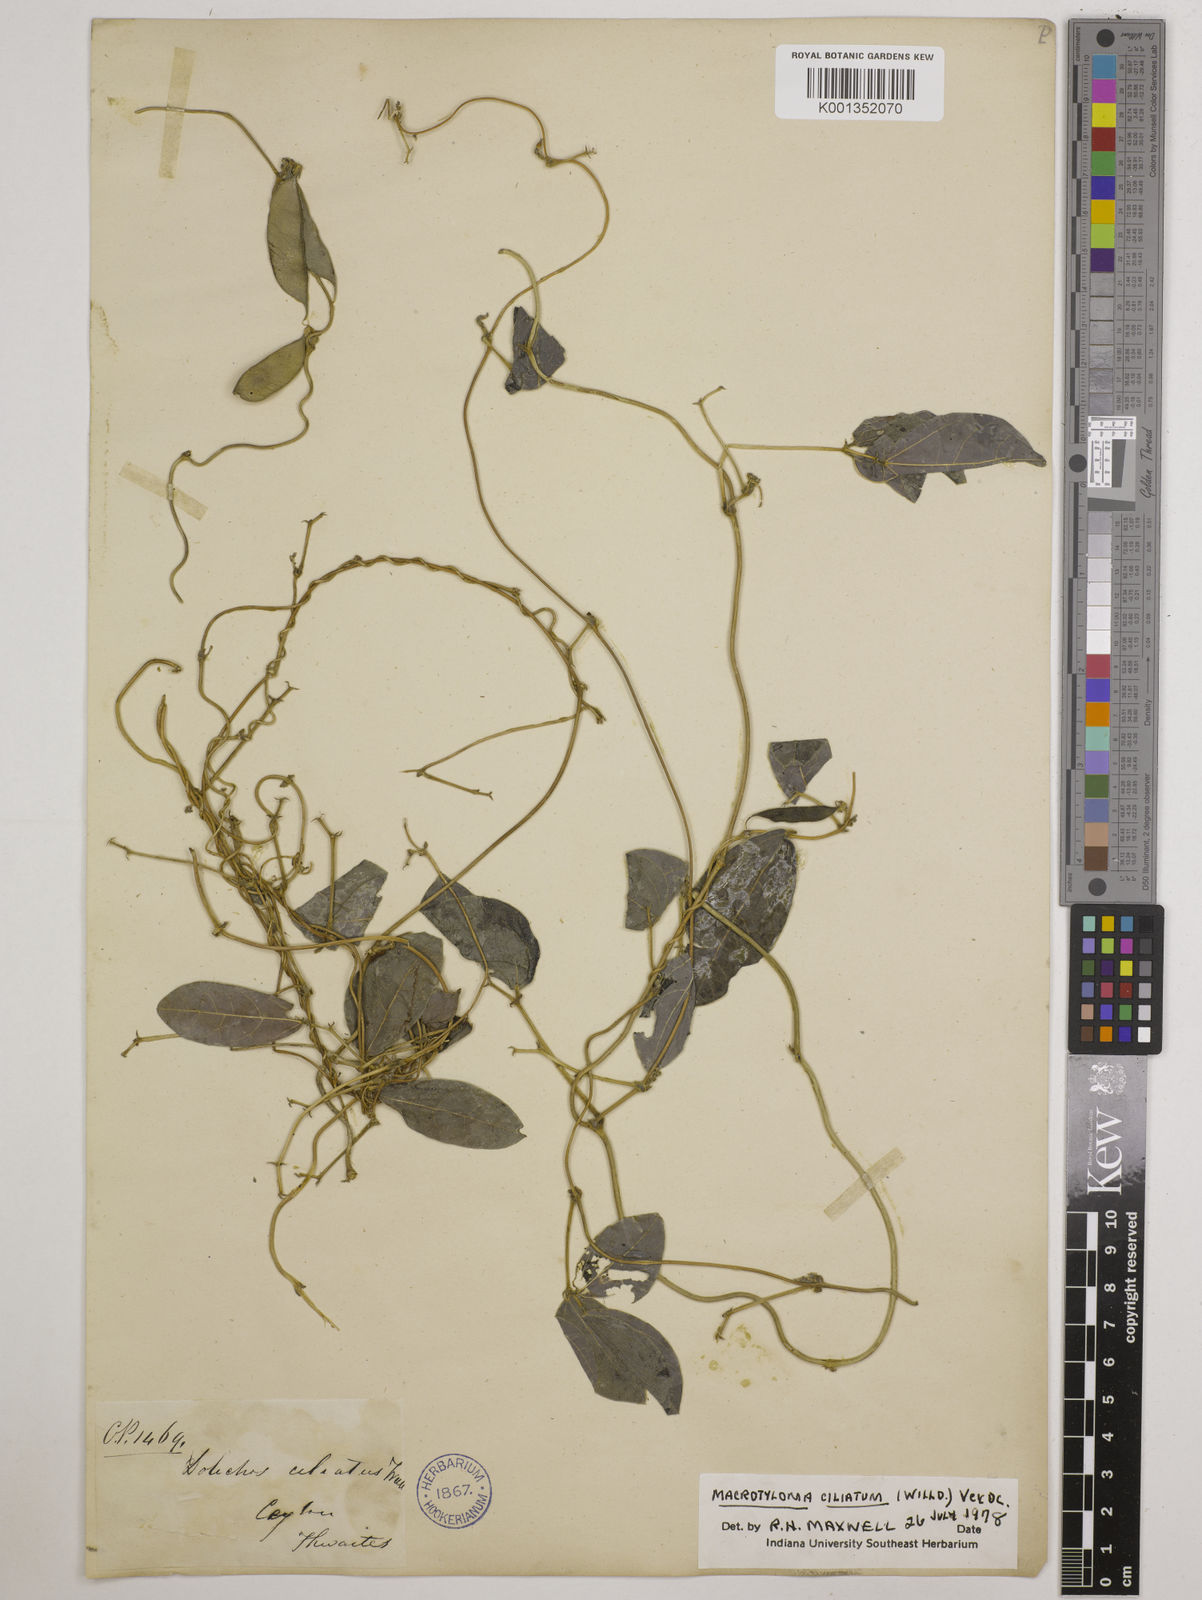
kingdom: Plantae
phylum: Tracheophyta
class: Magnoliopsida
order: Fabales
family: Fabaceae
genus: Macrotyloma
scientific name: Macrotyloma ciliatum
